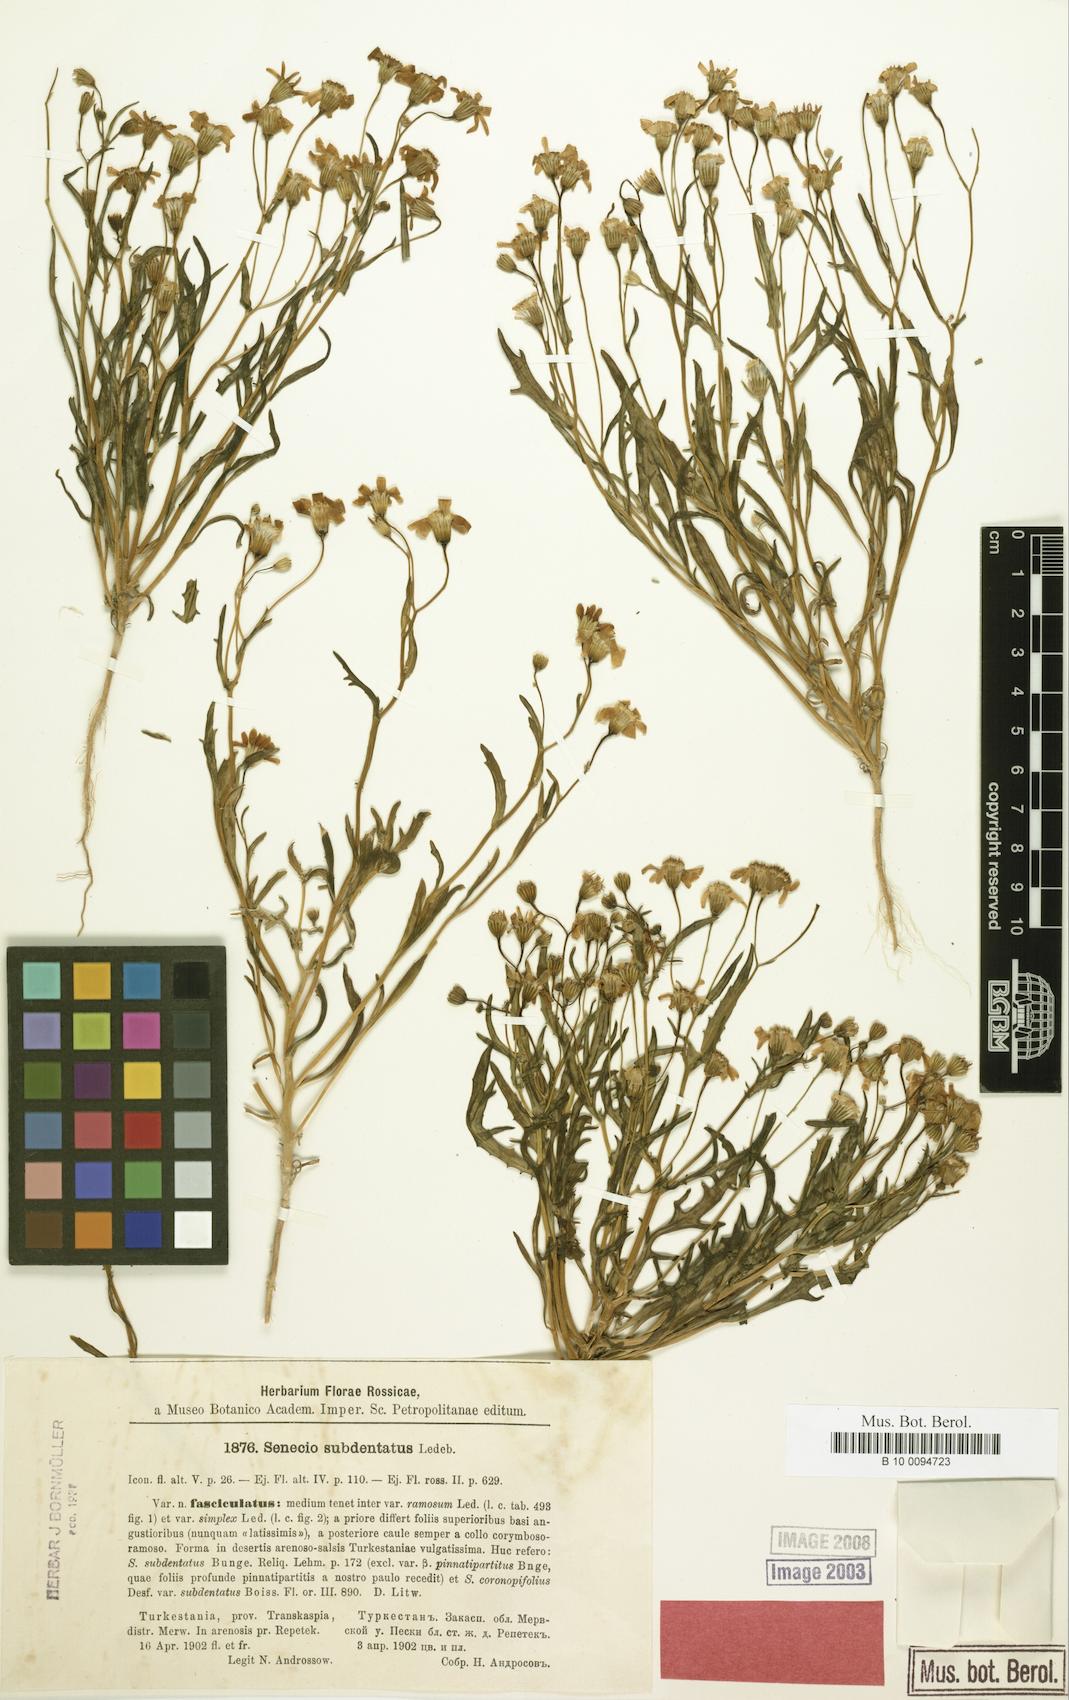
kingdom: Plantae
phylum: Tracheophyta
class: Magnoliopsida
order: Asterales
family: Asteraceae
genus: Senecio
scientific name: Senecio subdentatus
